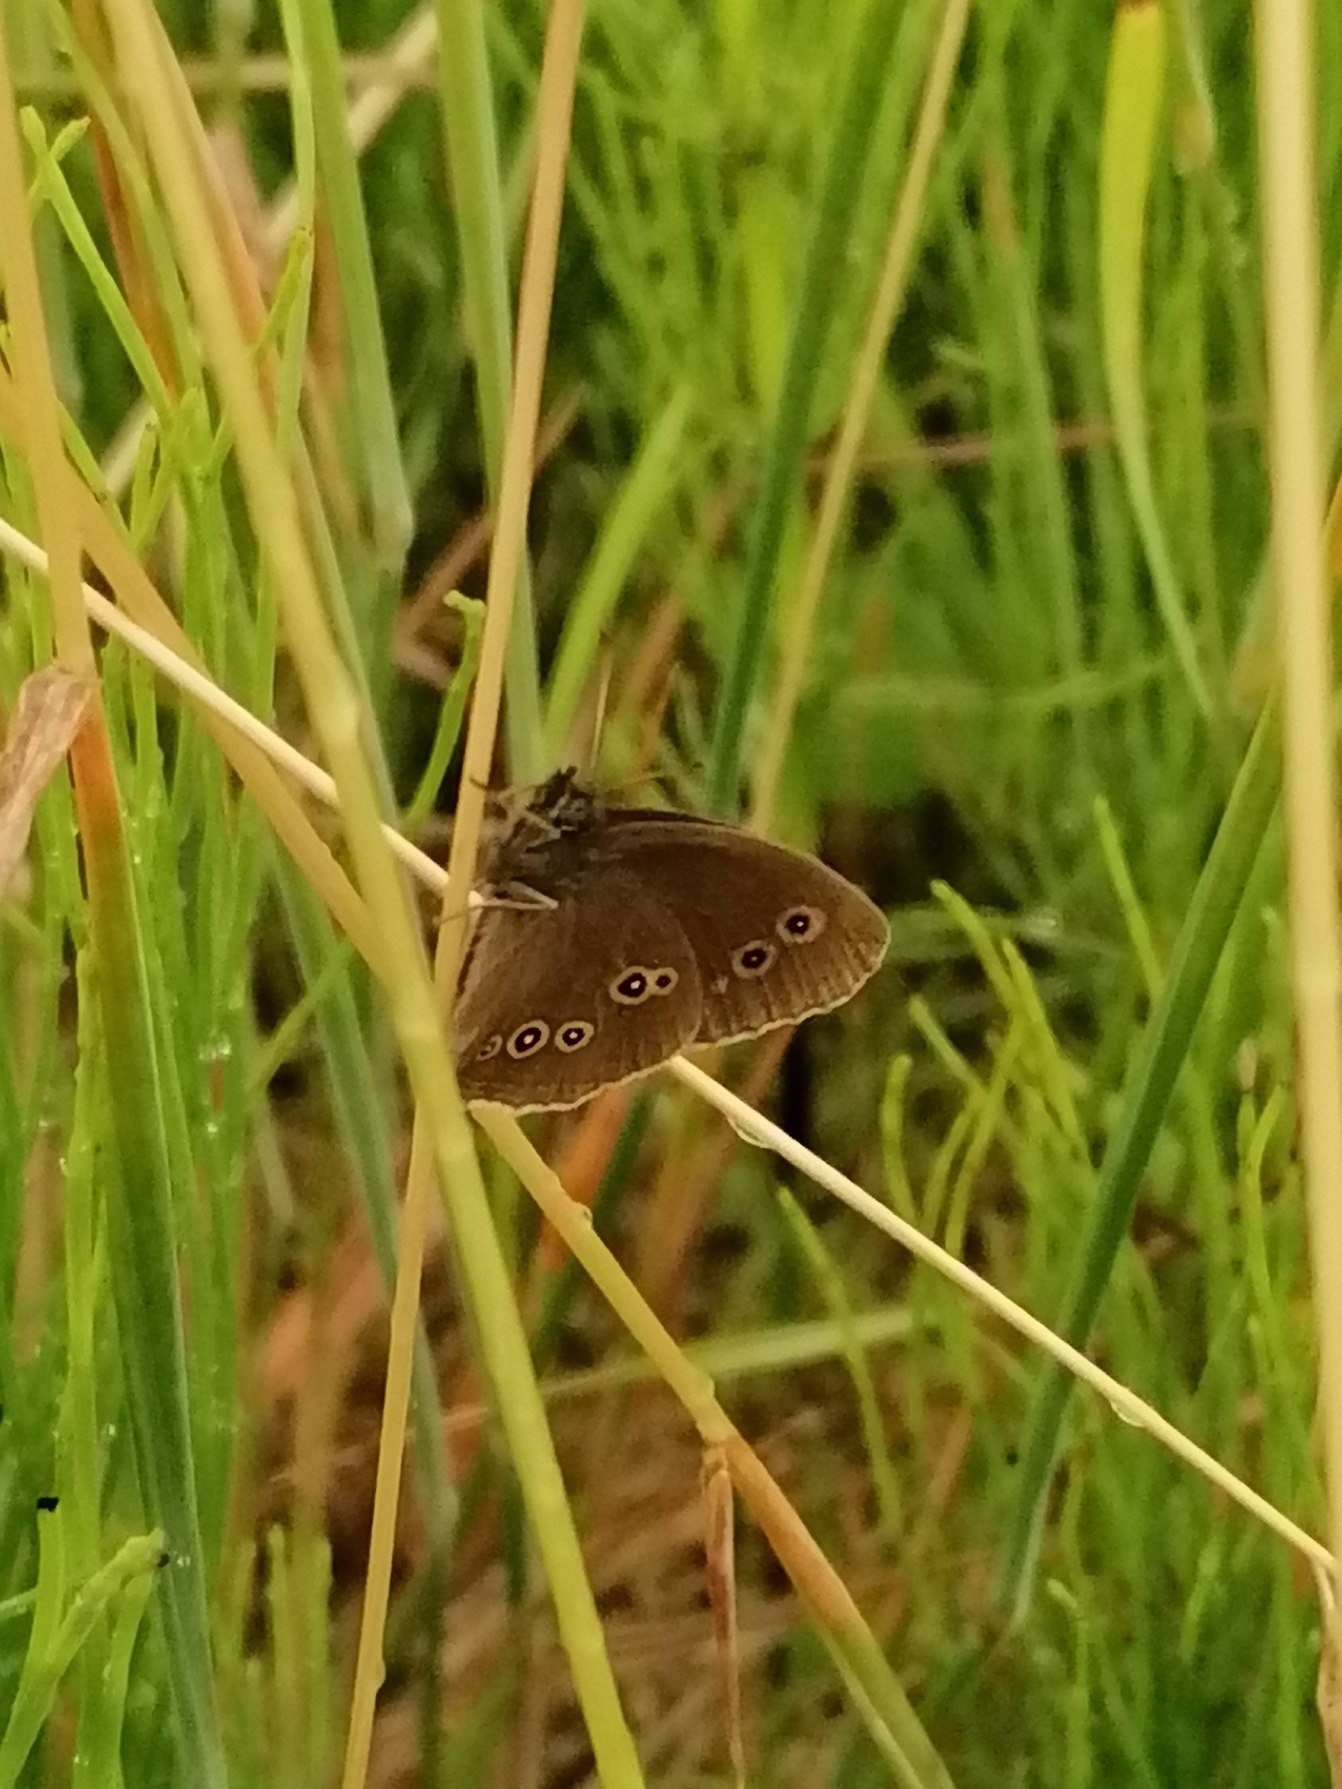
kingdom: Animalia
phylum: Arthropoda
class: Insecta
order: Lepidoptera
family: Nymphalidae
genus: Aphantopus
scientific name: Aphantopus hyperantus
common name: Engrandøje
